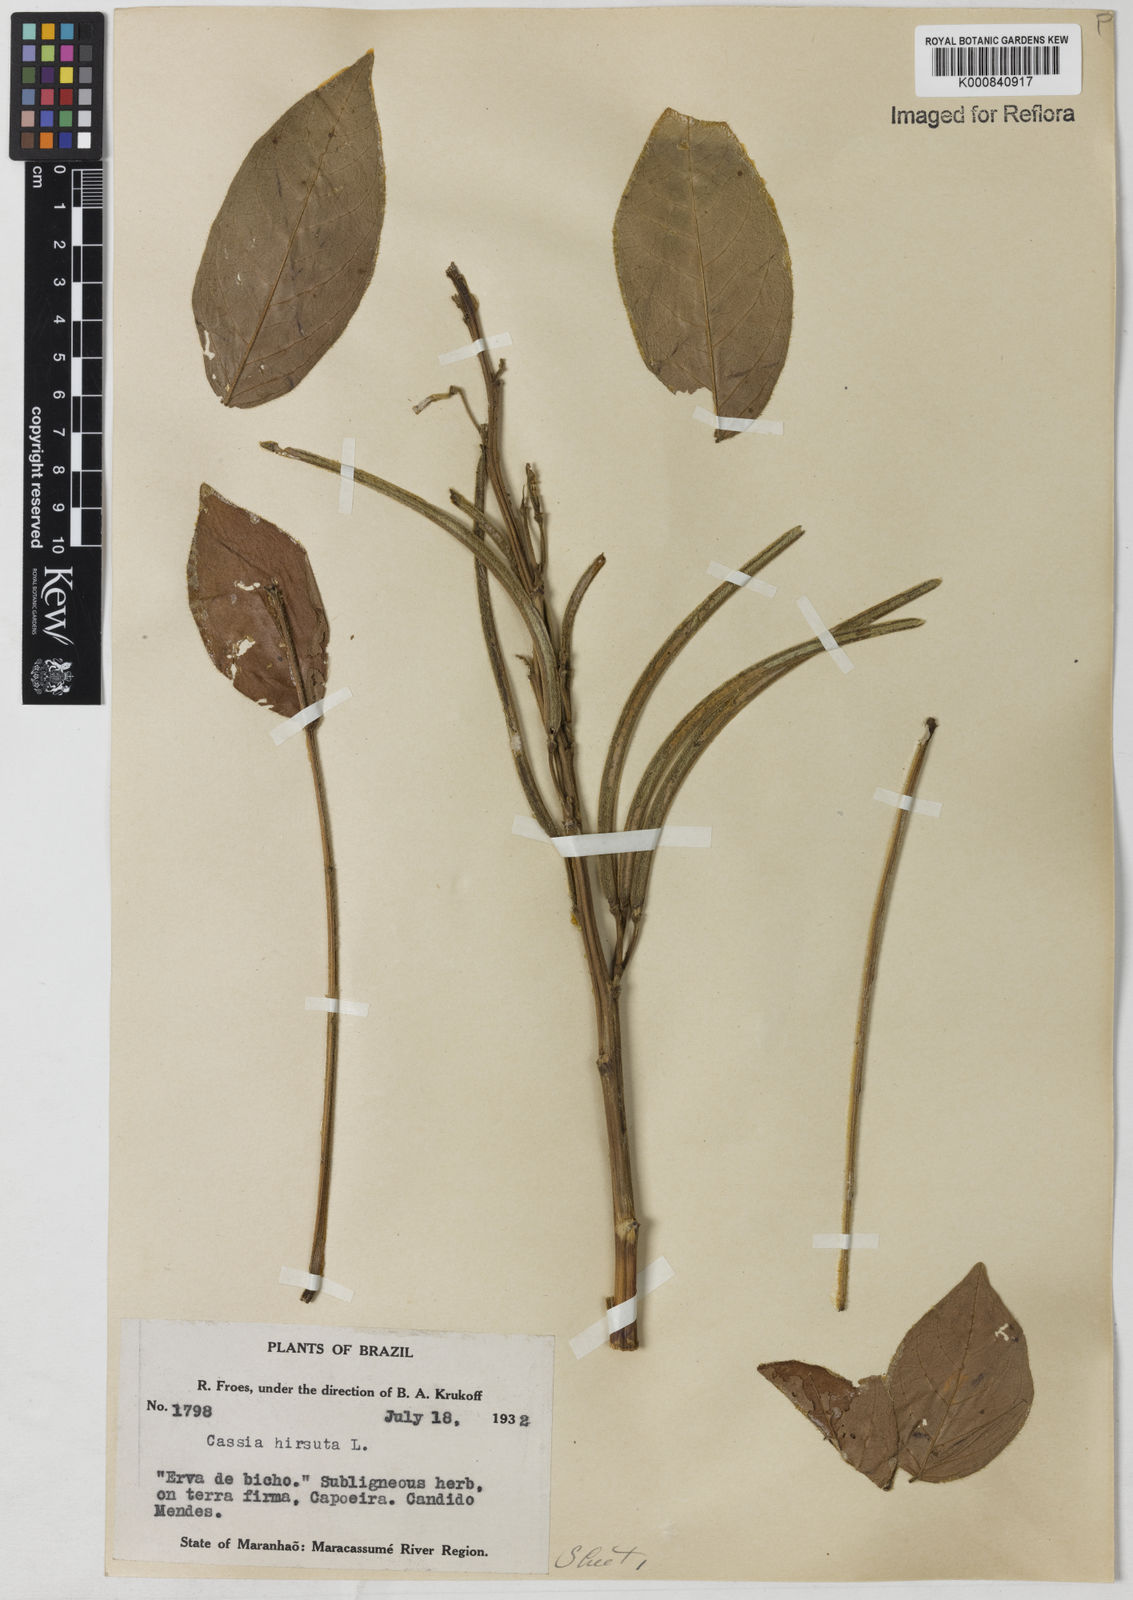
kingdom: Plantae
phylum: Tracheophyta
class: Magnoliopsida
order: Fabales
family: Fabaceae
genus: Senna
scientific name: Senna hirsuta
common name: Woolly senna
